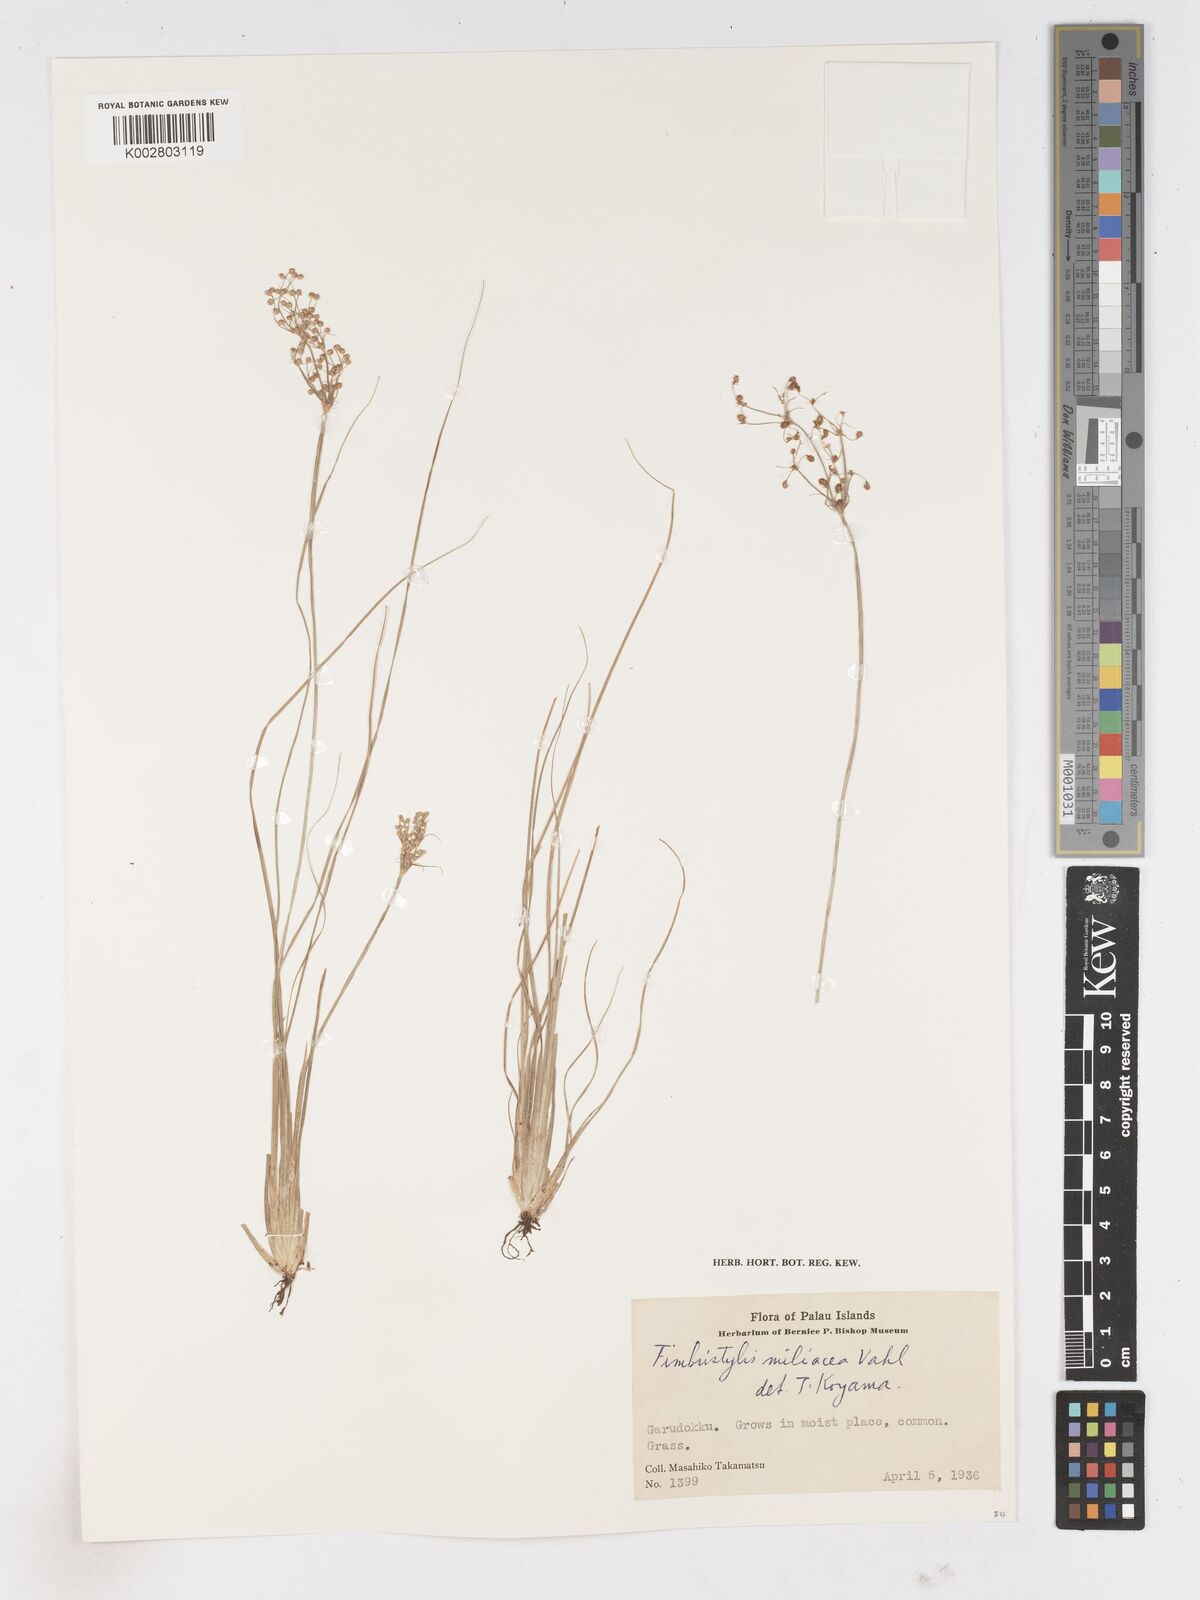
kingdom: Plantae
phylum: Tracheophyta
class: Liliopsida
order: Poales
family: Cyperaceae
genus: Fimbristylis
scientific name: Fimbristylis littoralis
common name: Fimbry
